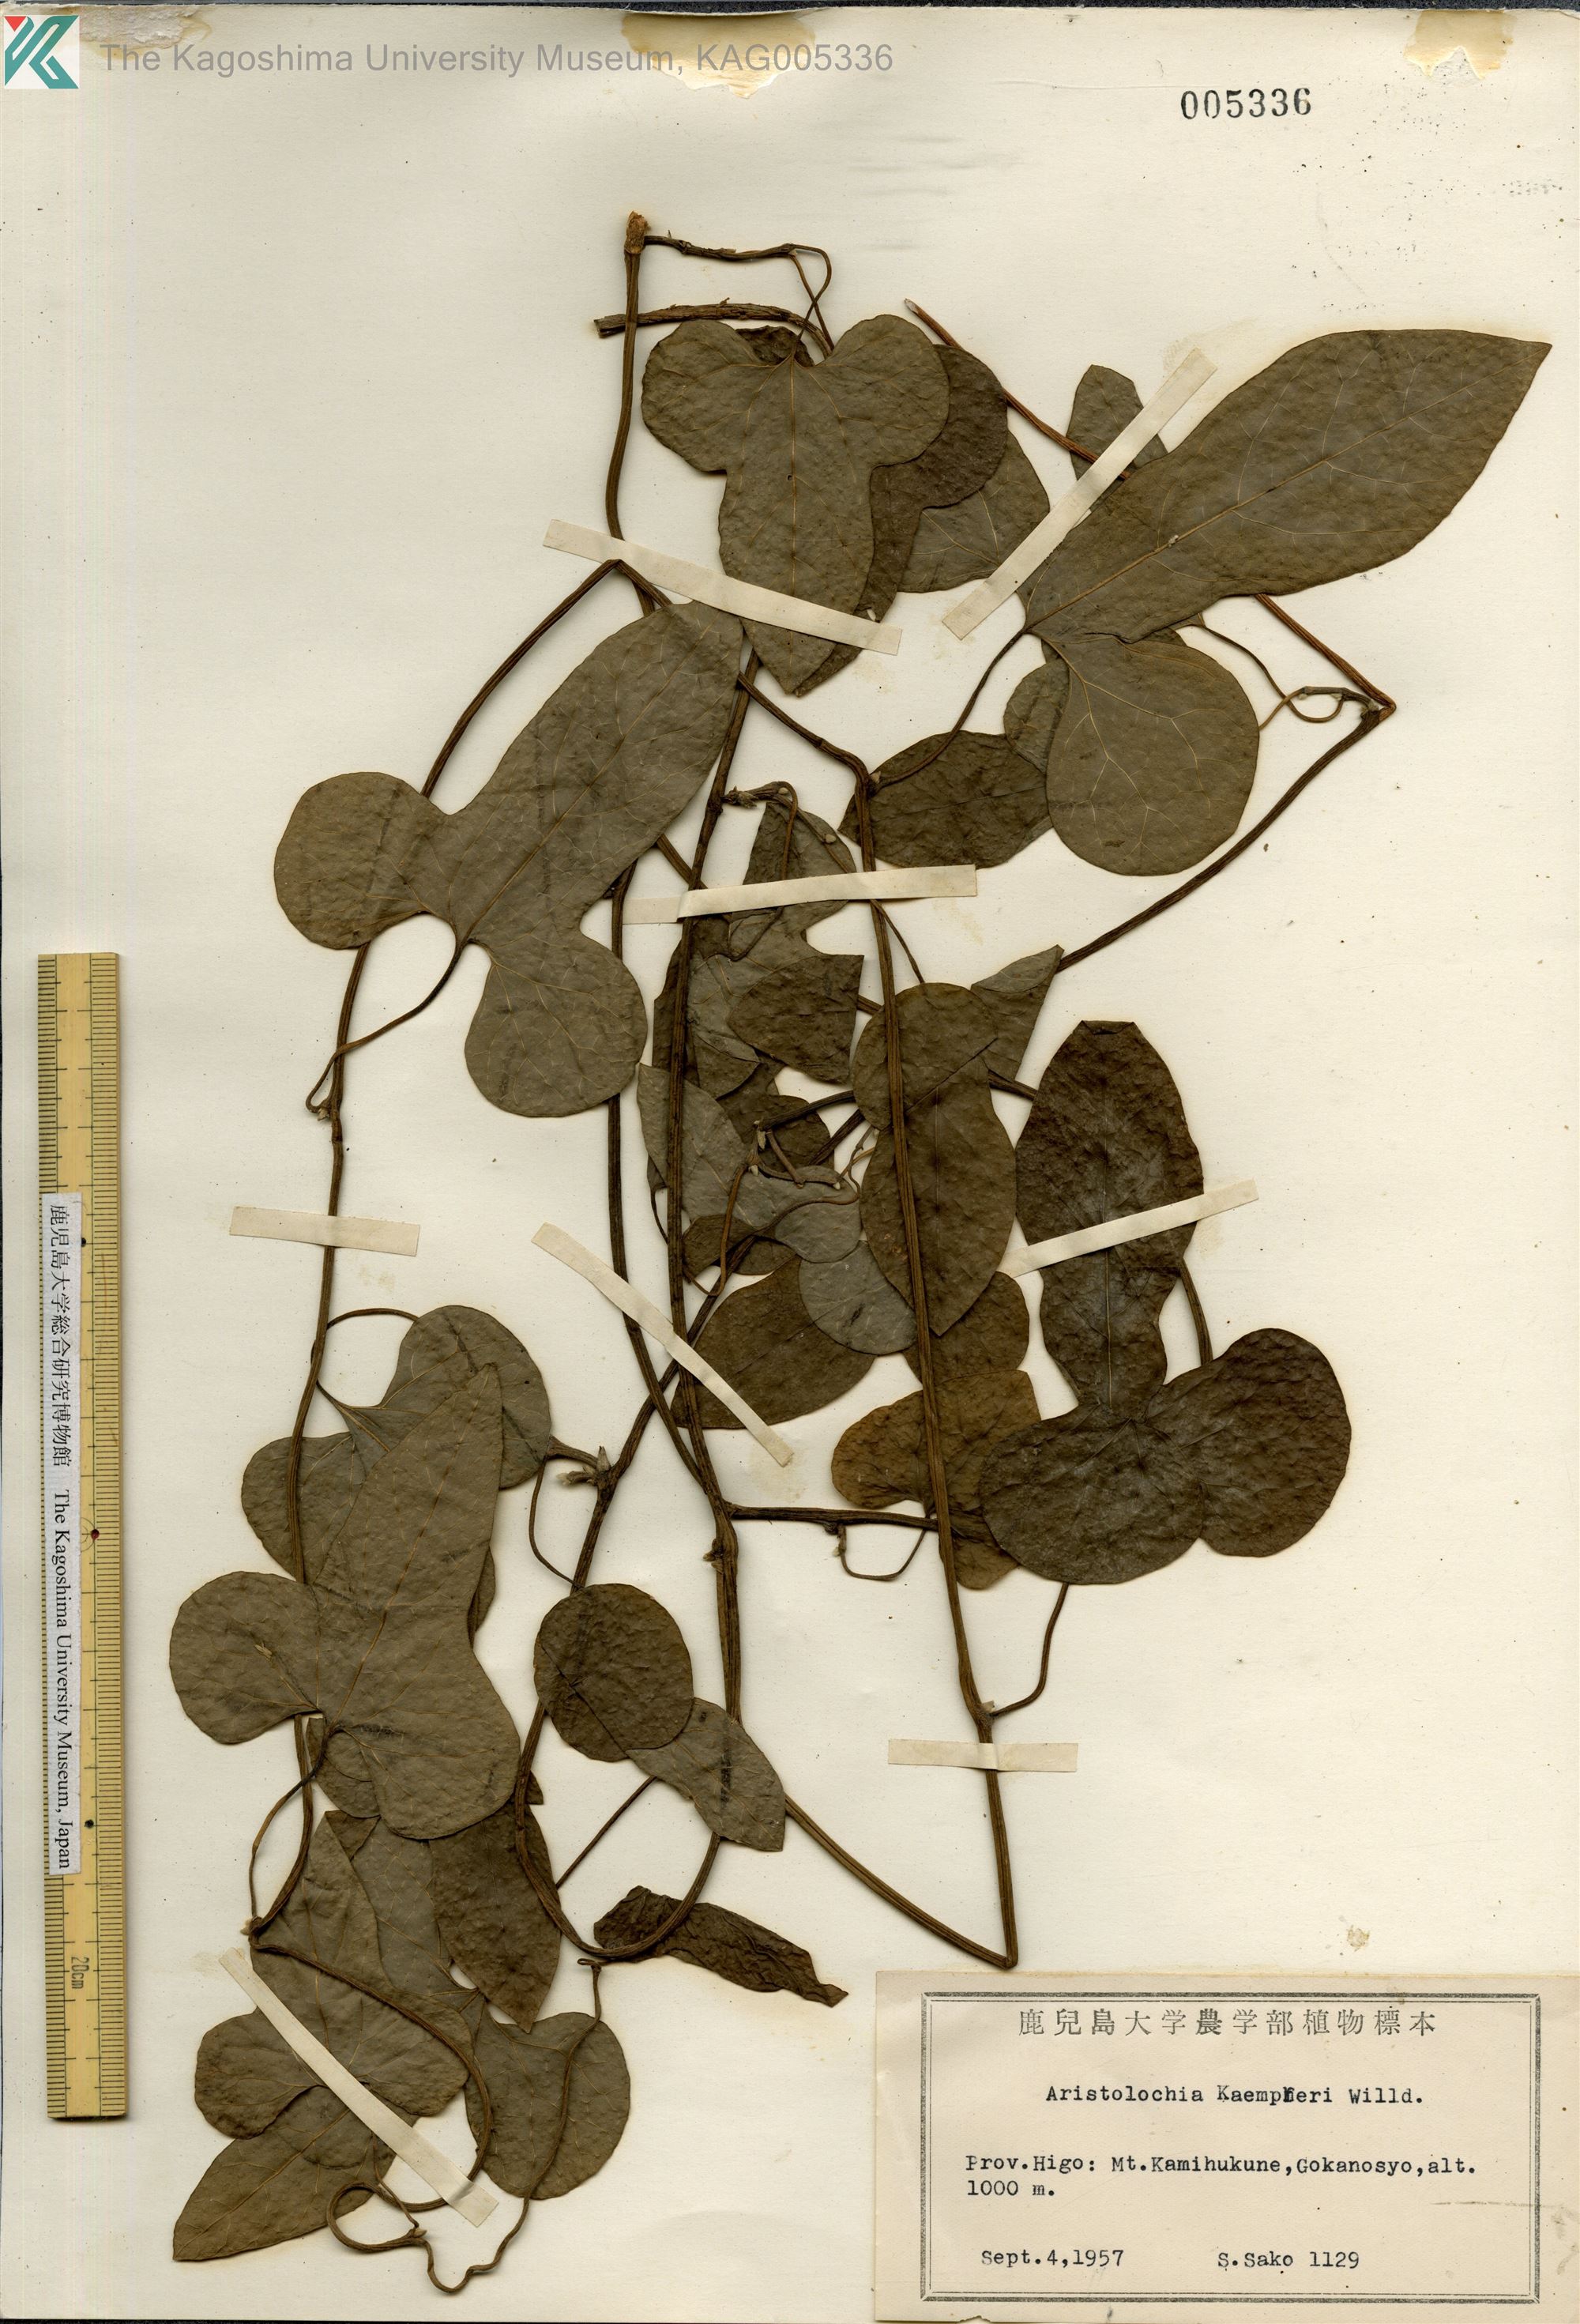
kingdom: Plantae
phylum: Tracheophyta
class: Magnoliopsida
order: Piperales
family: Aristolochiaceae
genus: Isotrema
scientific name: Isotrema kaempferi
